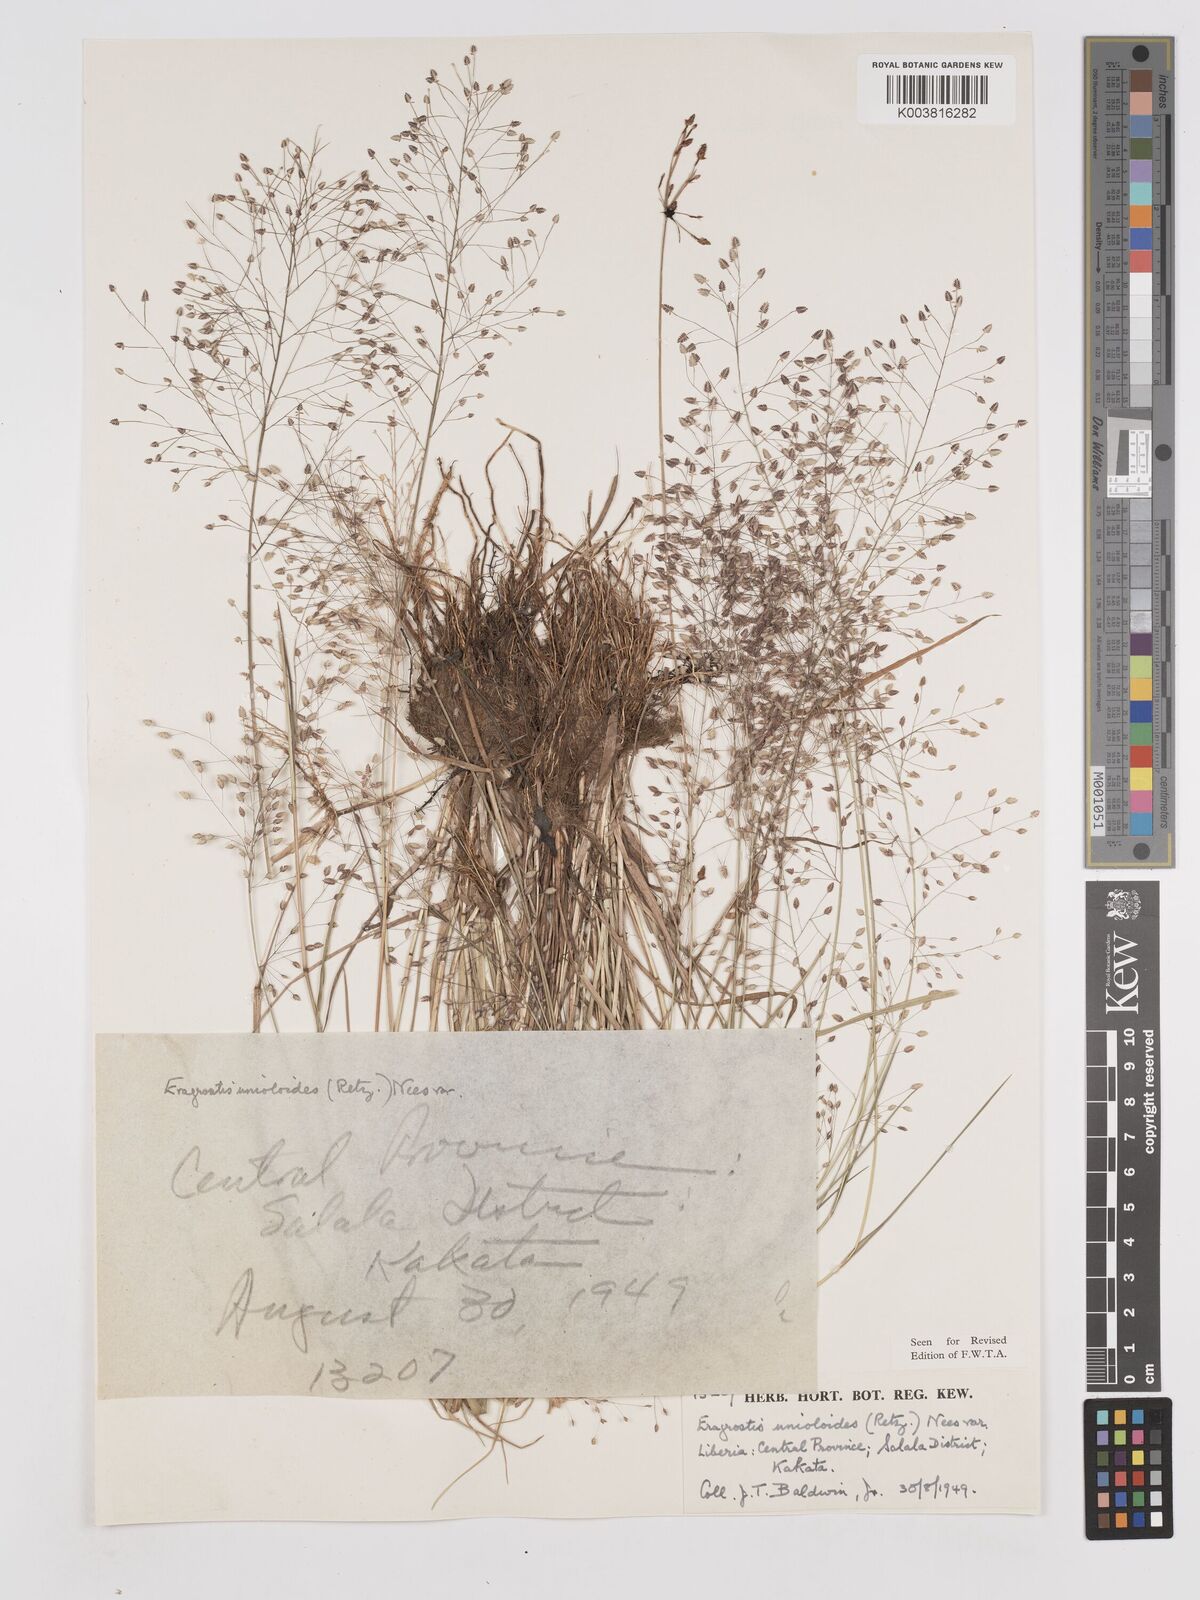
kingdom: Plantae
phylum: Tracheophyta
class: Liliopsida
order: Poales
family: Poaceae
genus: Eragrostis
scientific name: Eragrostis unioloides
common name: Chinese lovegrass
